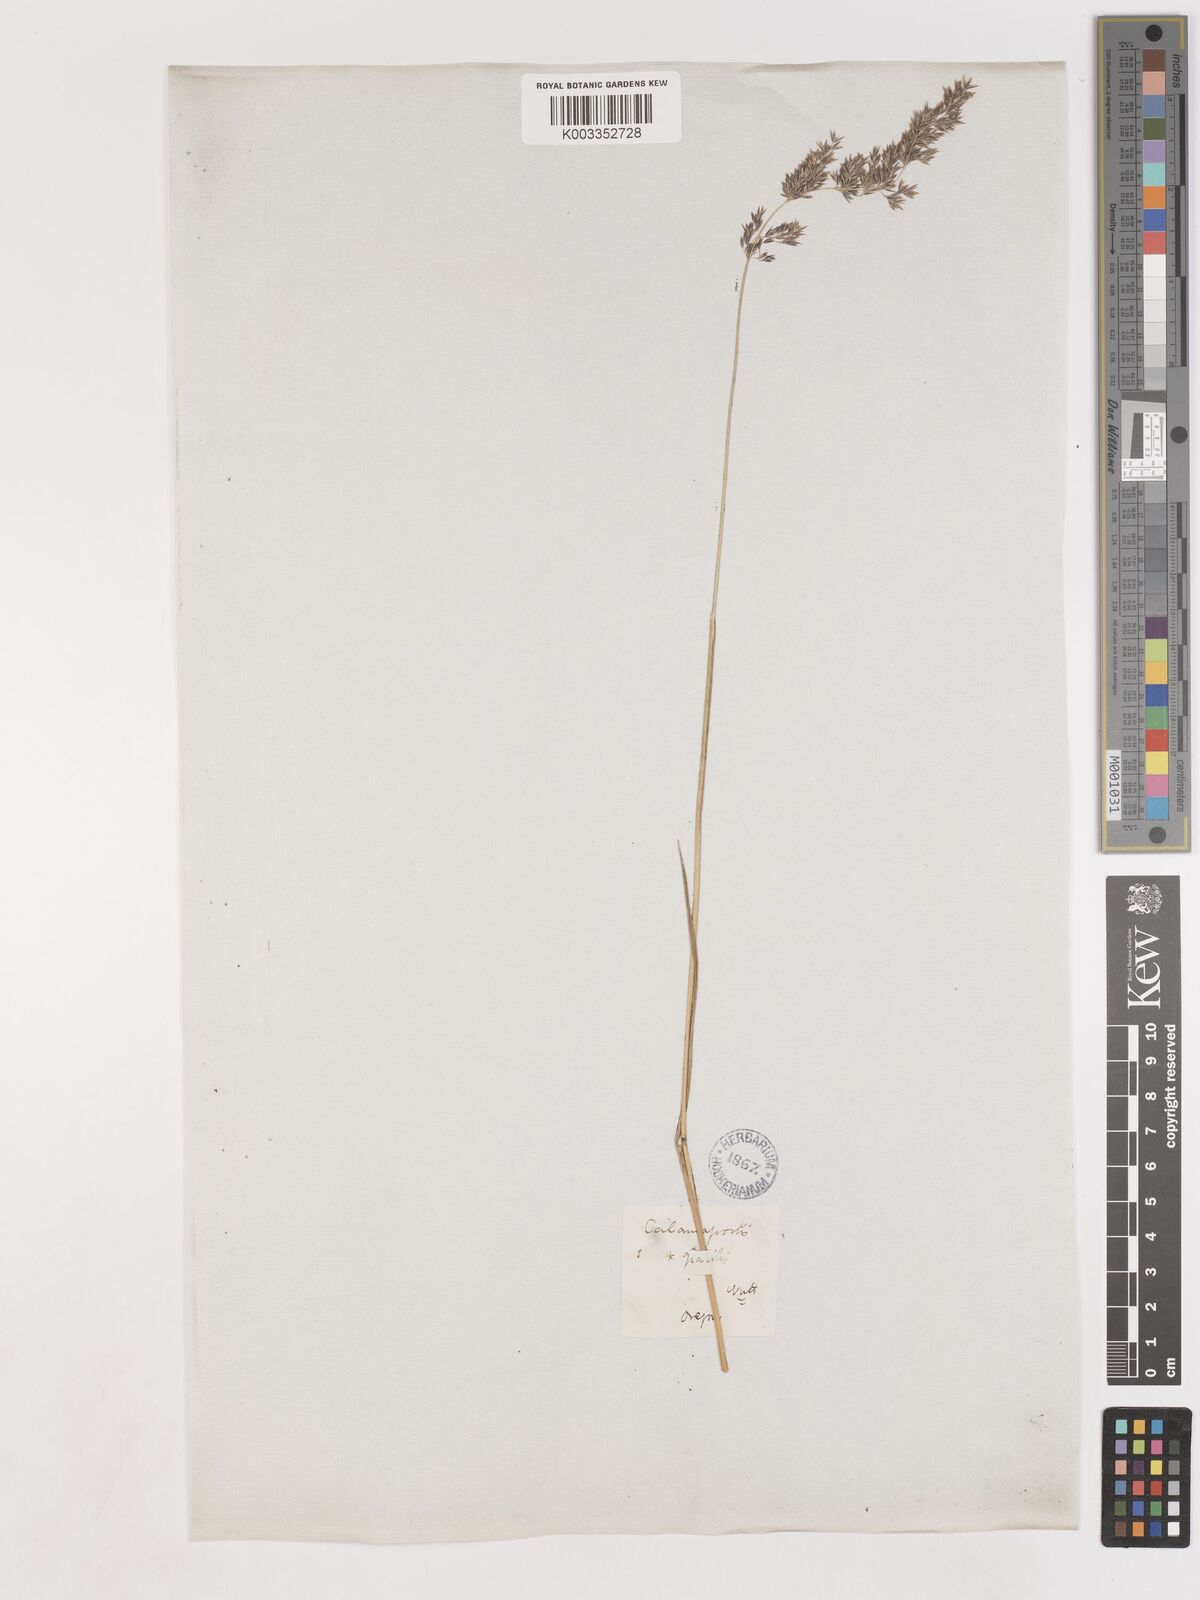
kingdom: Plantae
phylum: Tracheophyta
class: Liliopsida
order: Poales
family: Poaceae
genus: Calamagrostis
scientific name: Calamagrostis canadensis
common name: Canada bluejoint
